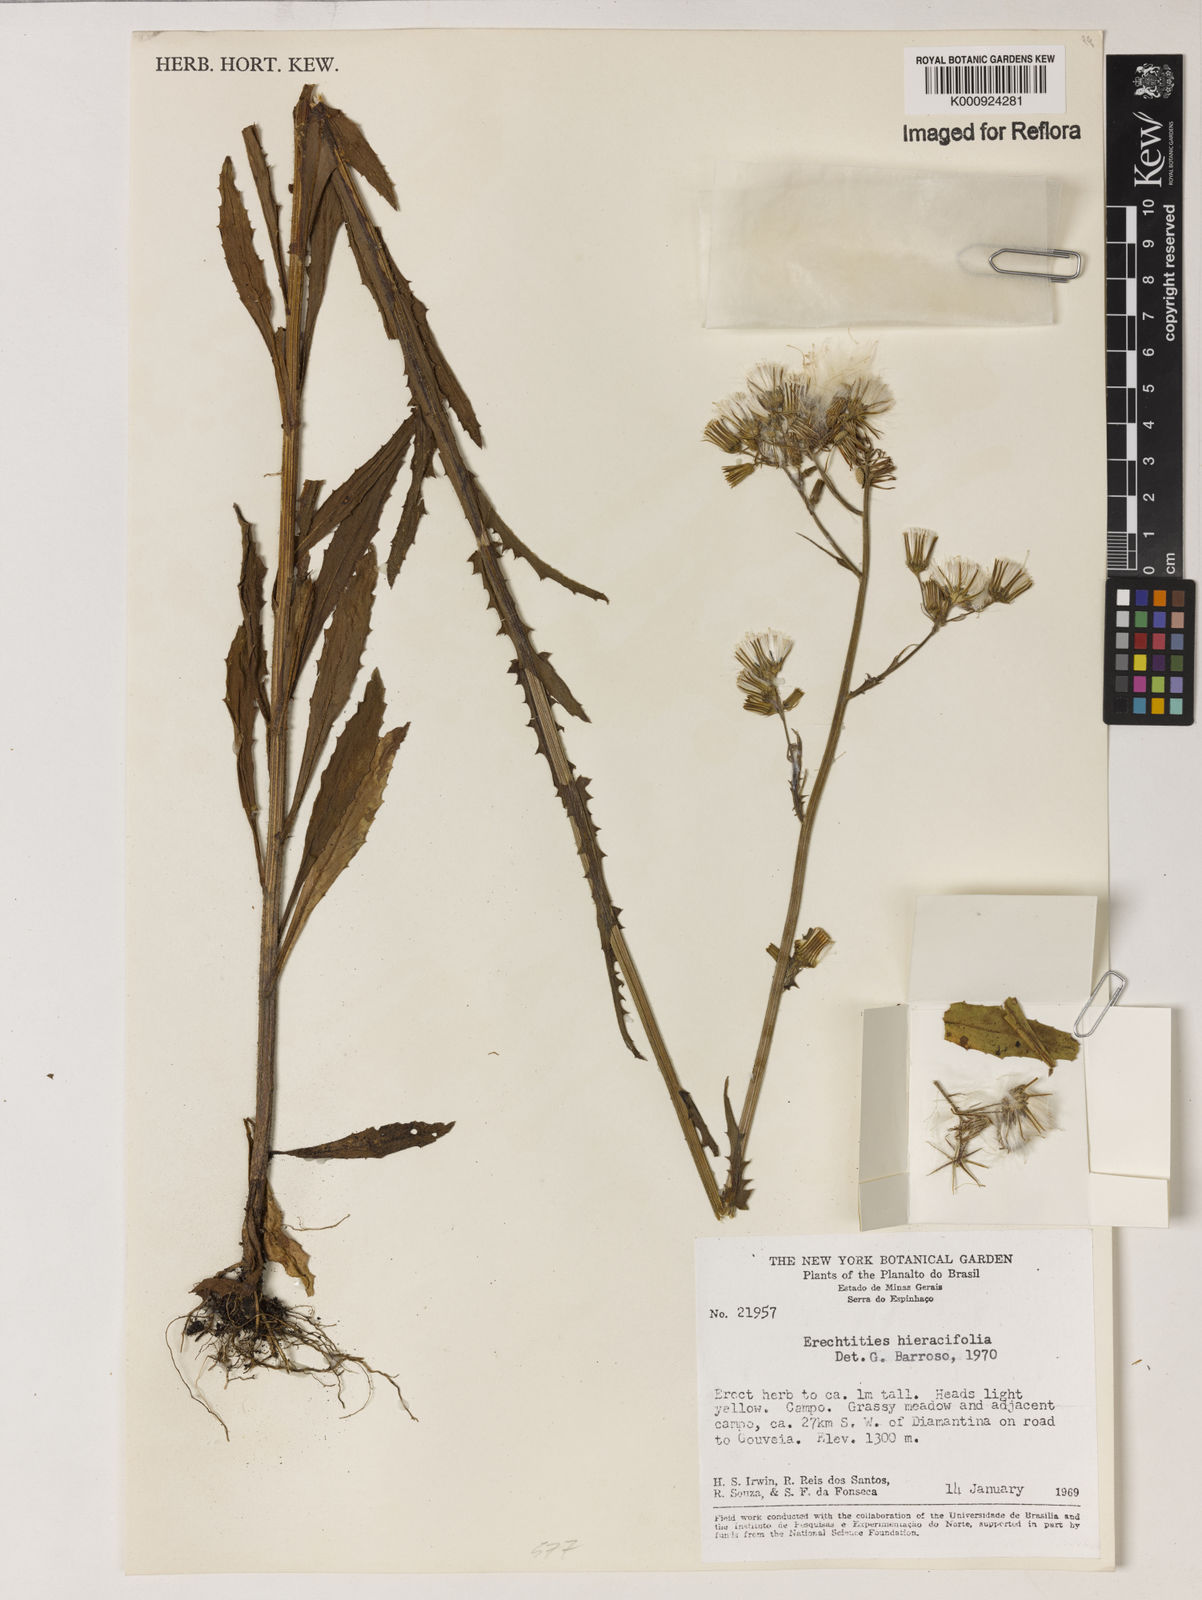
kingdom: Plantae
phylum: Tracheophyta
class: Magnoliopsida
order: Asterales
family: Asteraceae
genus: Erechtites
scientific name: Erechtites hieraciifolius
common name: American burnweed
